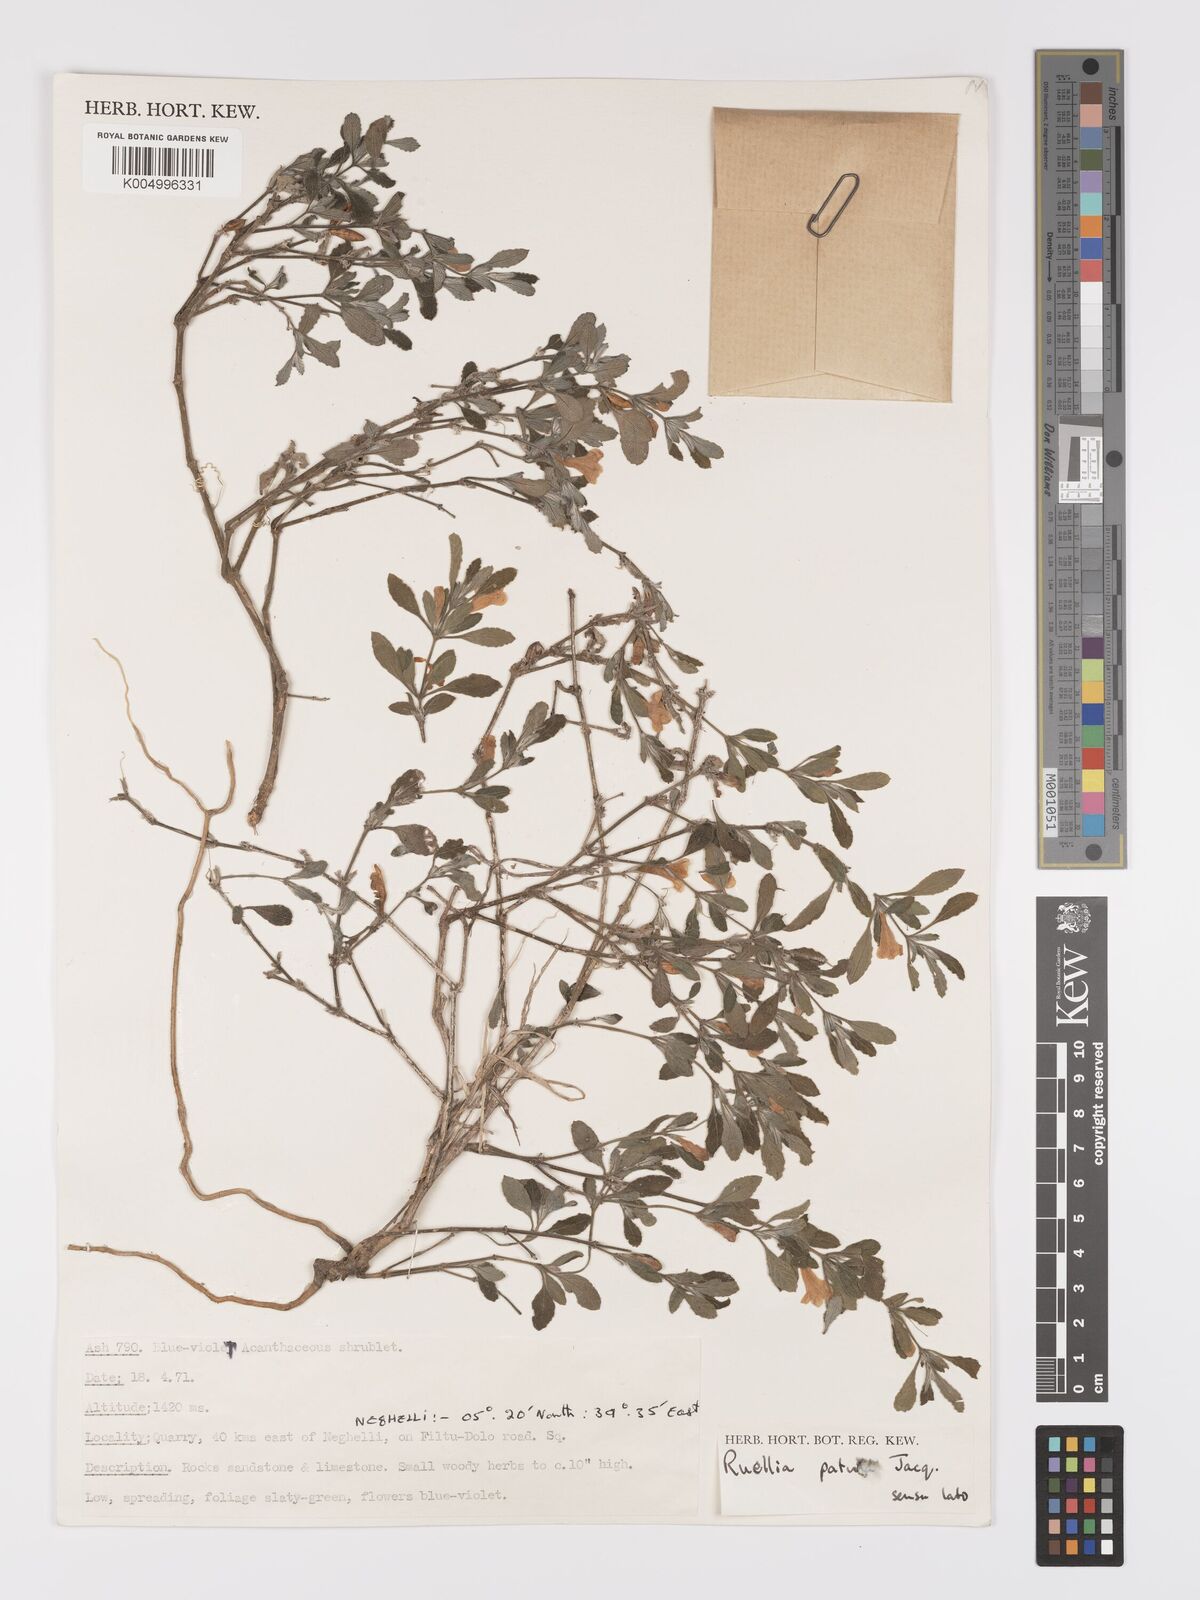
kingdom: Plantae
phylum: Tracheophyta
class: Magnoliopsida
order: Lamiales
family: Acanthaceae
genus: Ruellia
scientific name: Ruellia patula
